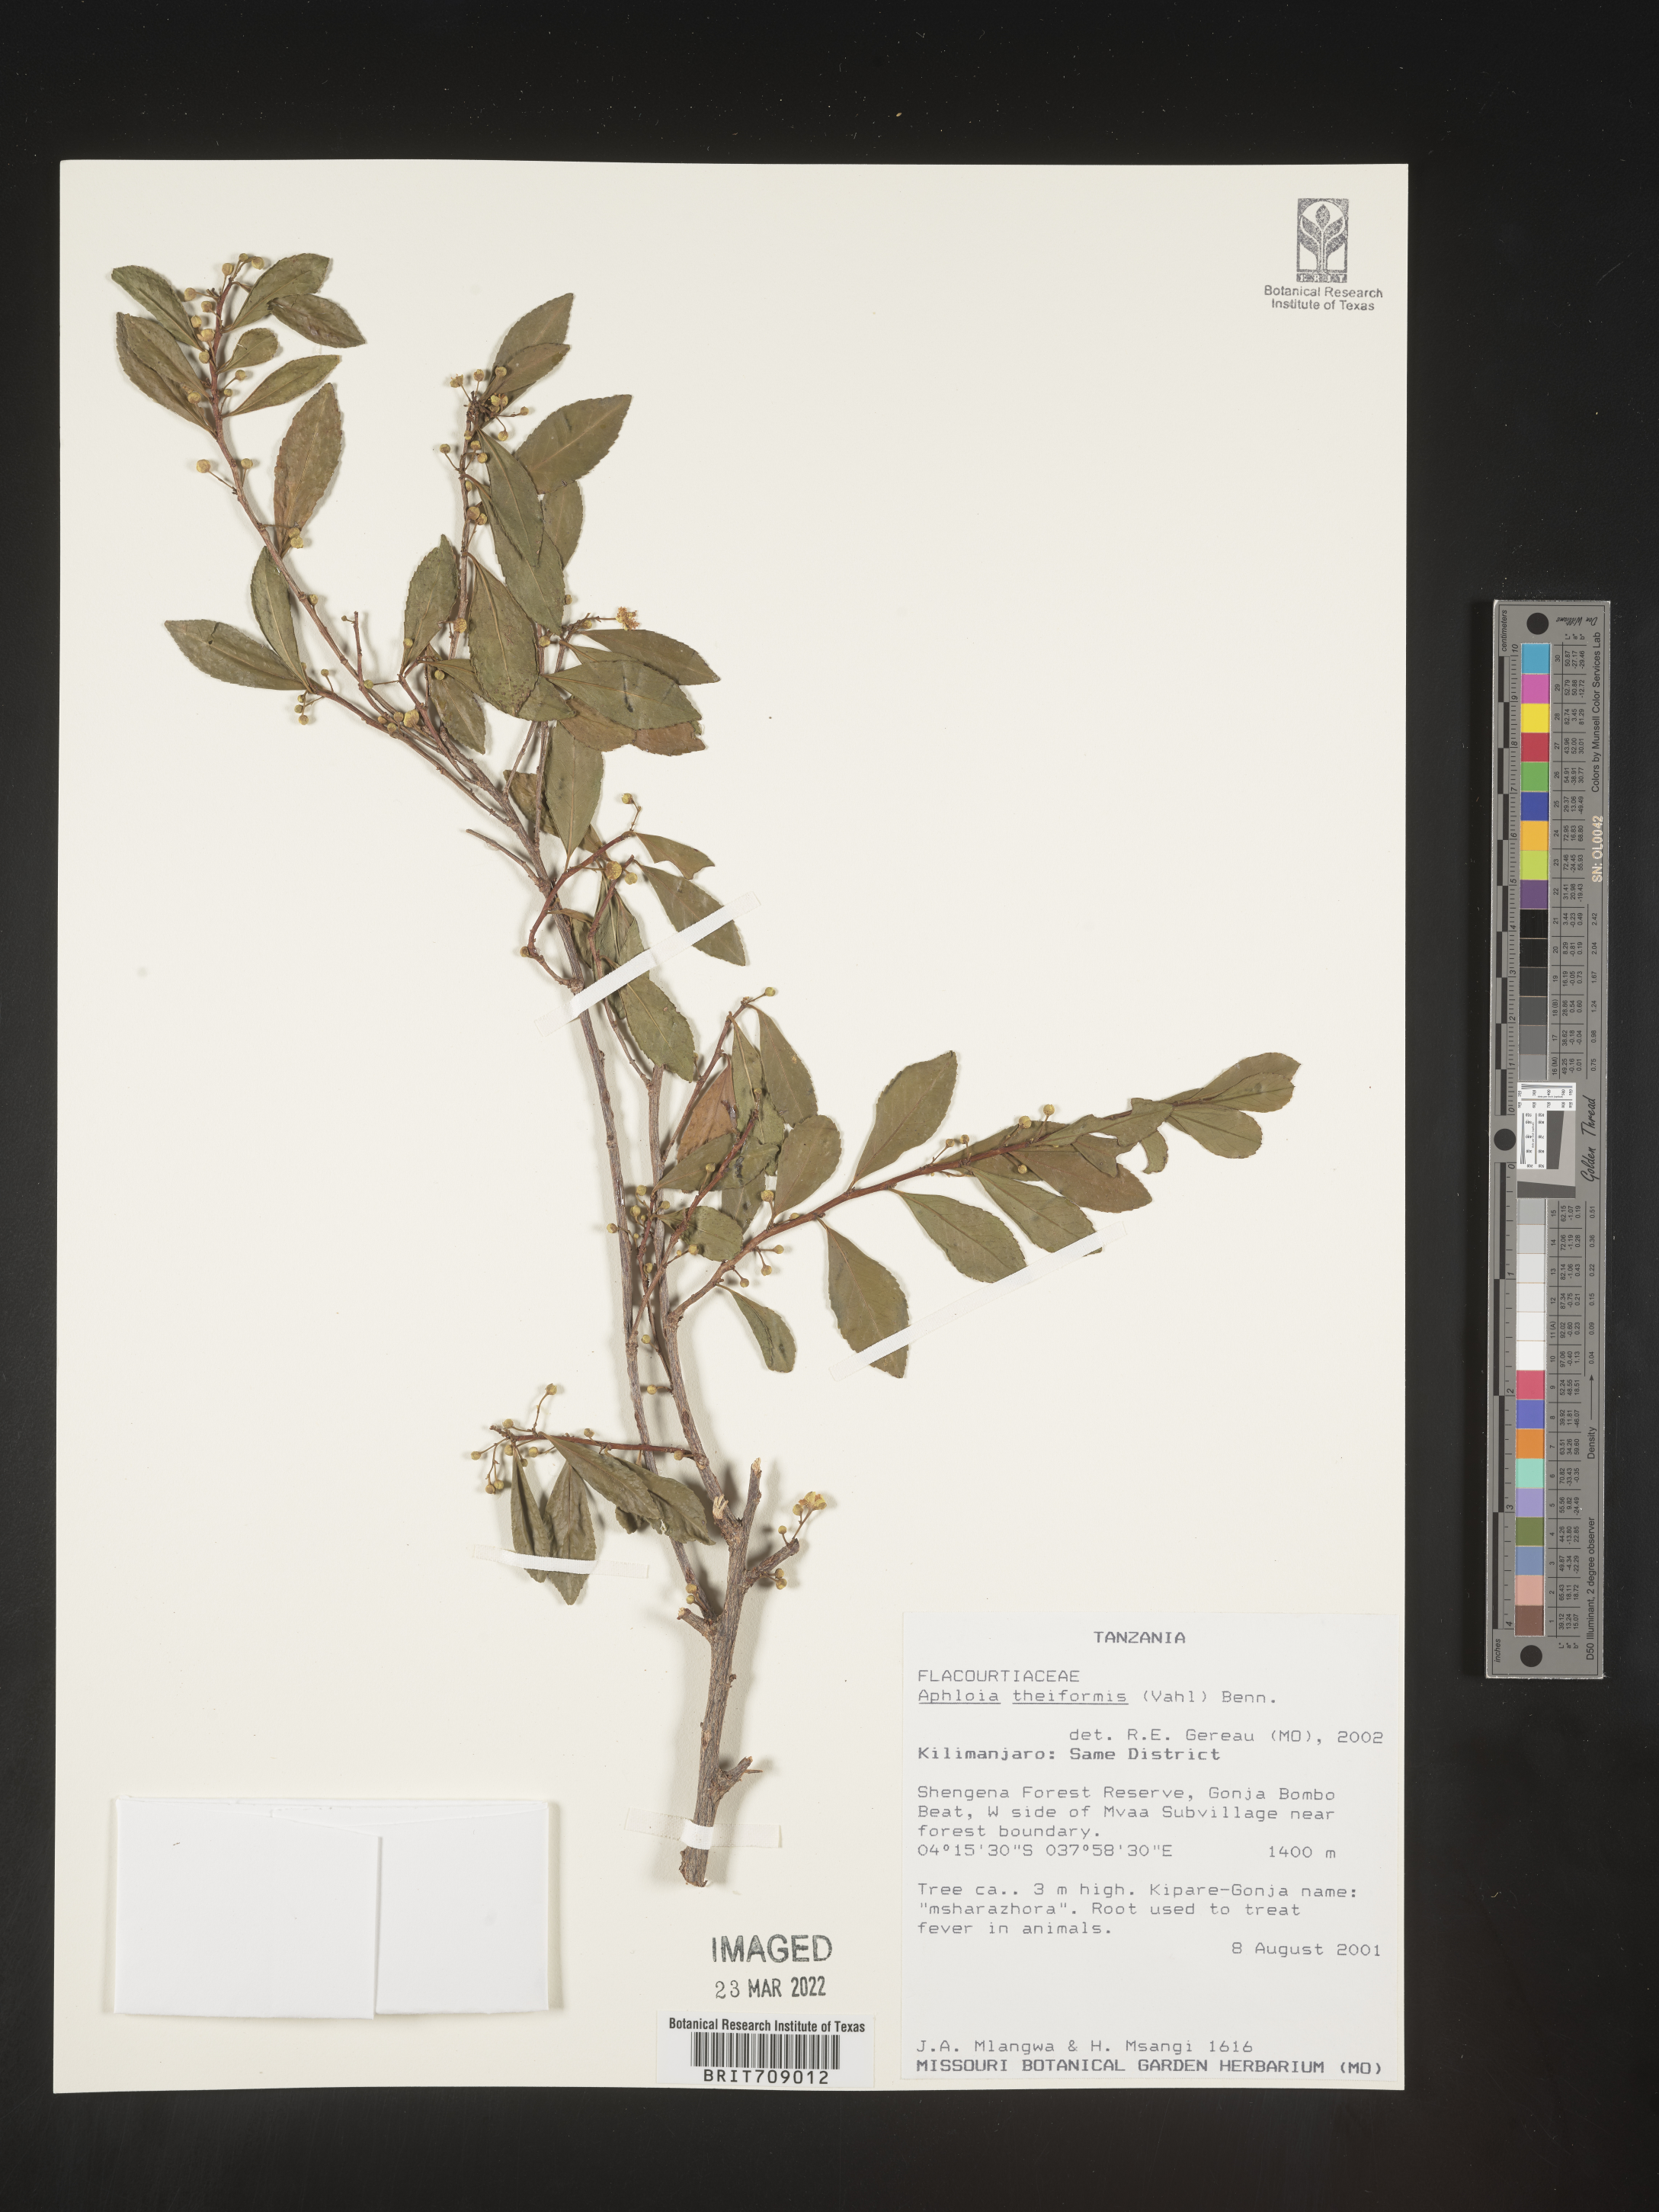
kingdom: Plantae
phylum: Tracheophyta
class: Magnoliopsida
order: Crossosomatales
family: Aphloiaceae
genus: Aphloia
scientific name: Aphloia
